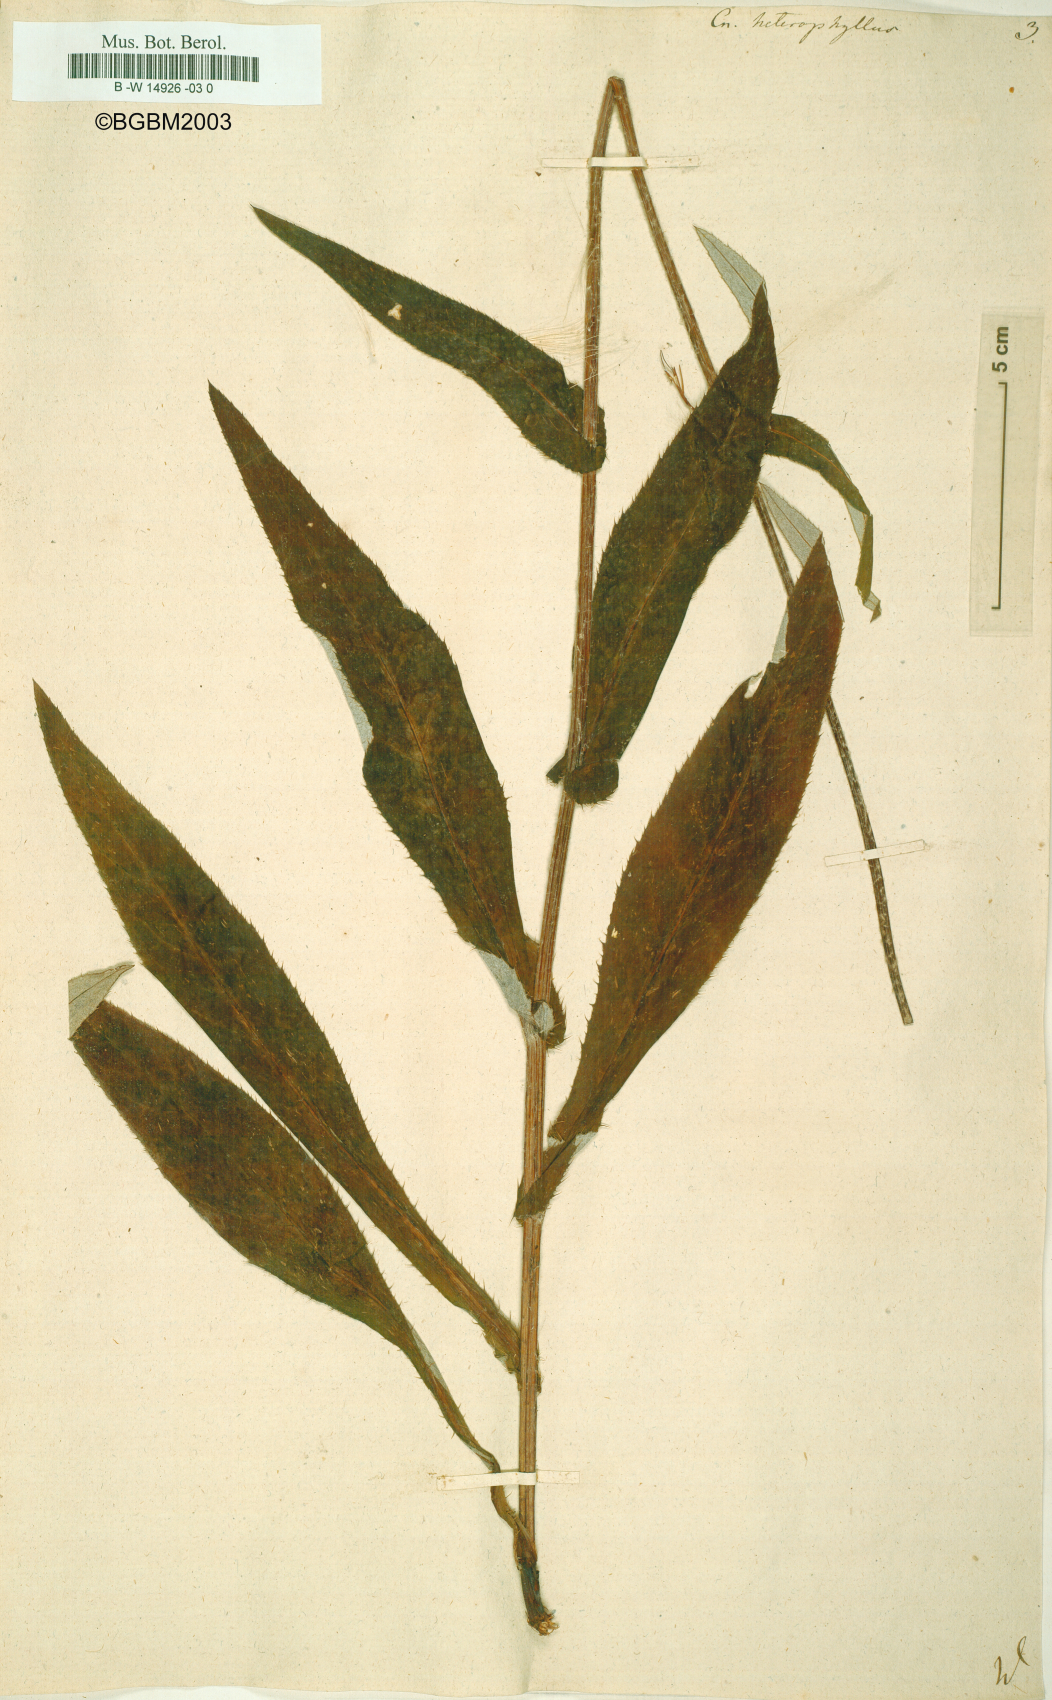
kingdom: Plantae
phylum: Tracheophyta
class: Magnoliopsida
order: Asterales
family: Asteraceae
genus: Cirsium
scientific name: Cirsium heterophyllum
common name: Melancholy thistle
